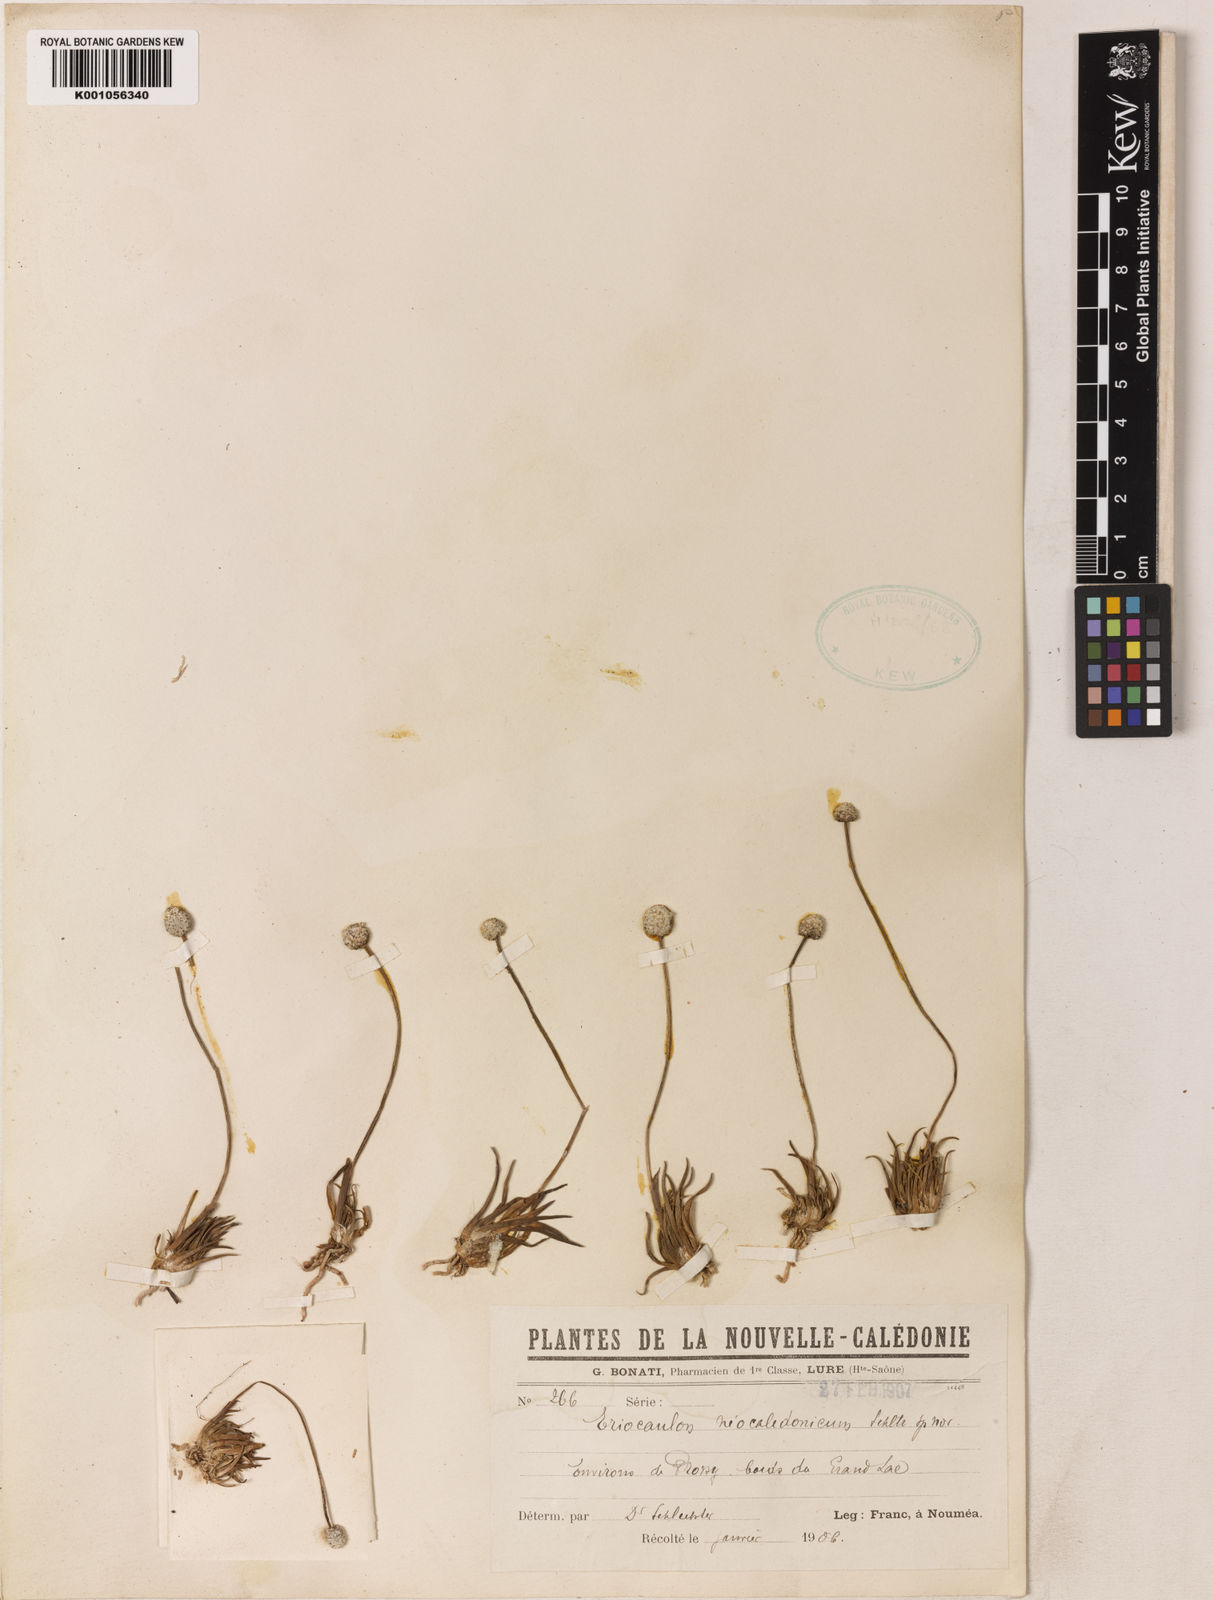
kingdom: Plantae
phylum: Tracheophyta
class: Liliopsida
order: Poales
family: Eriocaulaceae
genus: Eriocaulon
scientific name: Eriocaulon neocaledonicum
